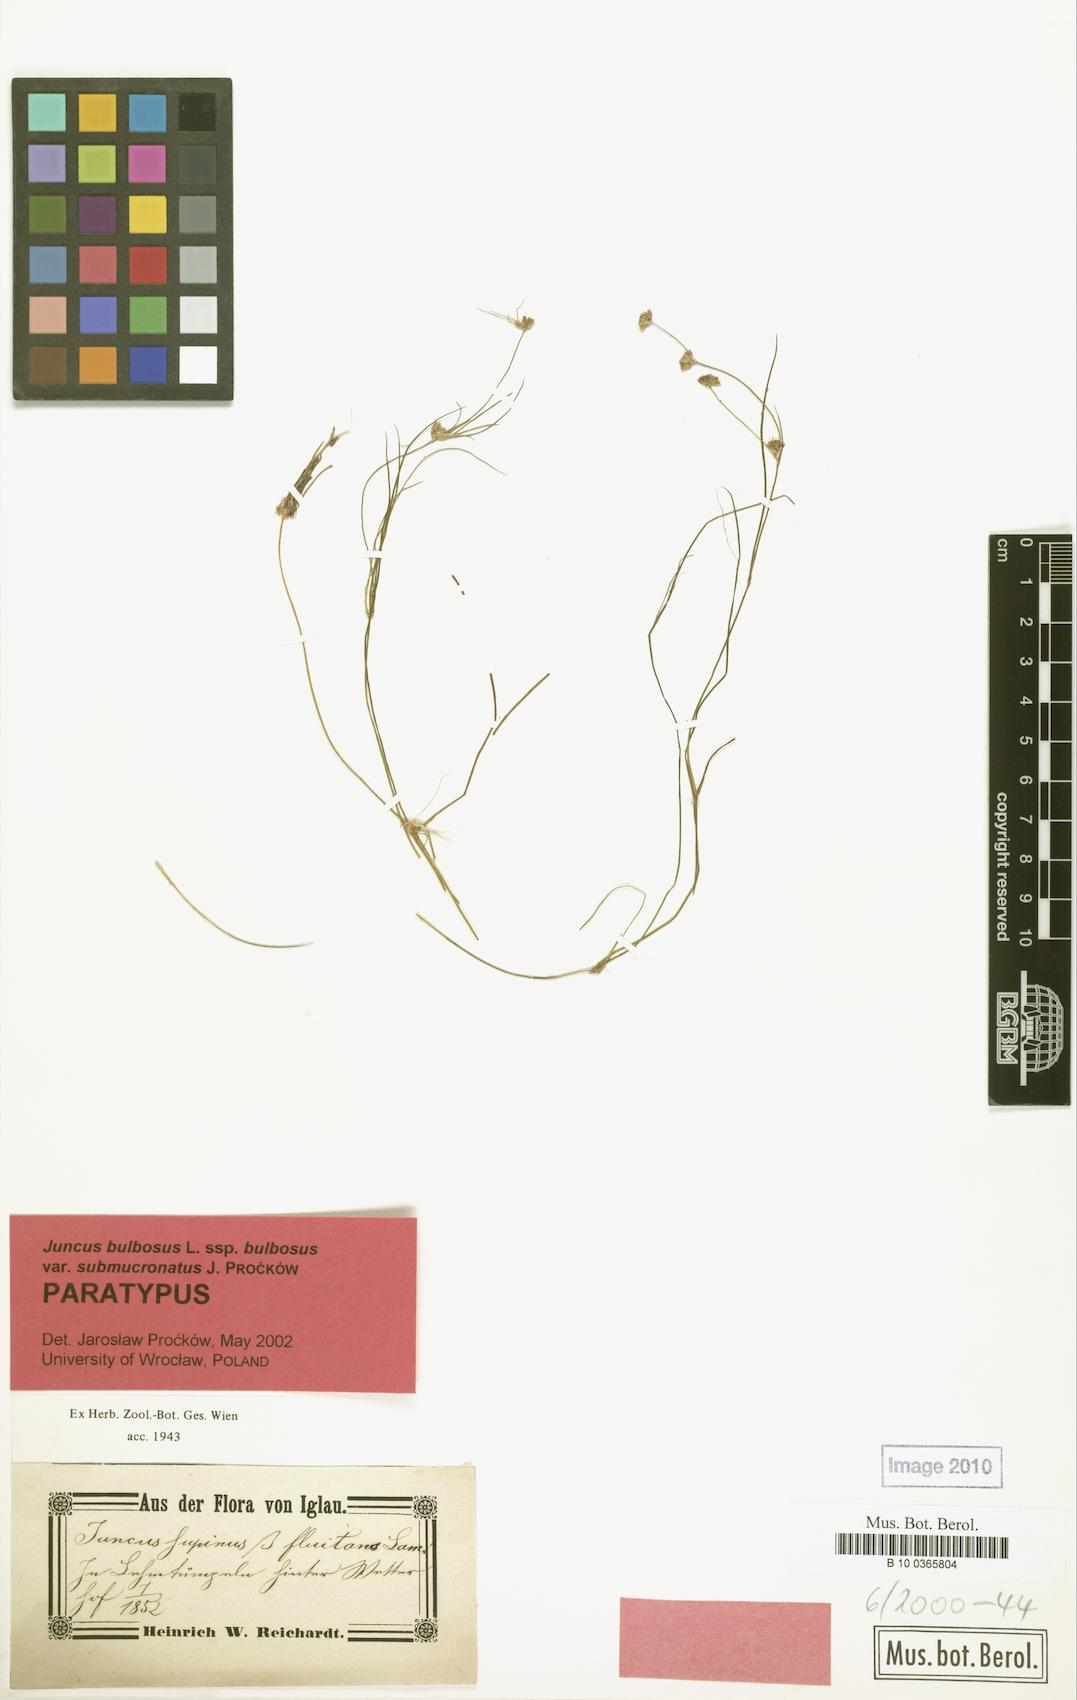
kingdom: Plantae
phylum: Tracheophyta
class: Liliopsida
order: Poales
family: Juncaceae
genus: Juncus
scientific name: Juncus bulbosus
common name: Bulbous rush
